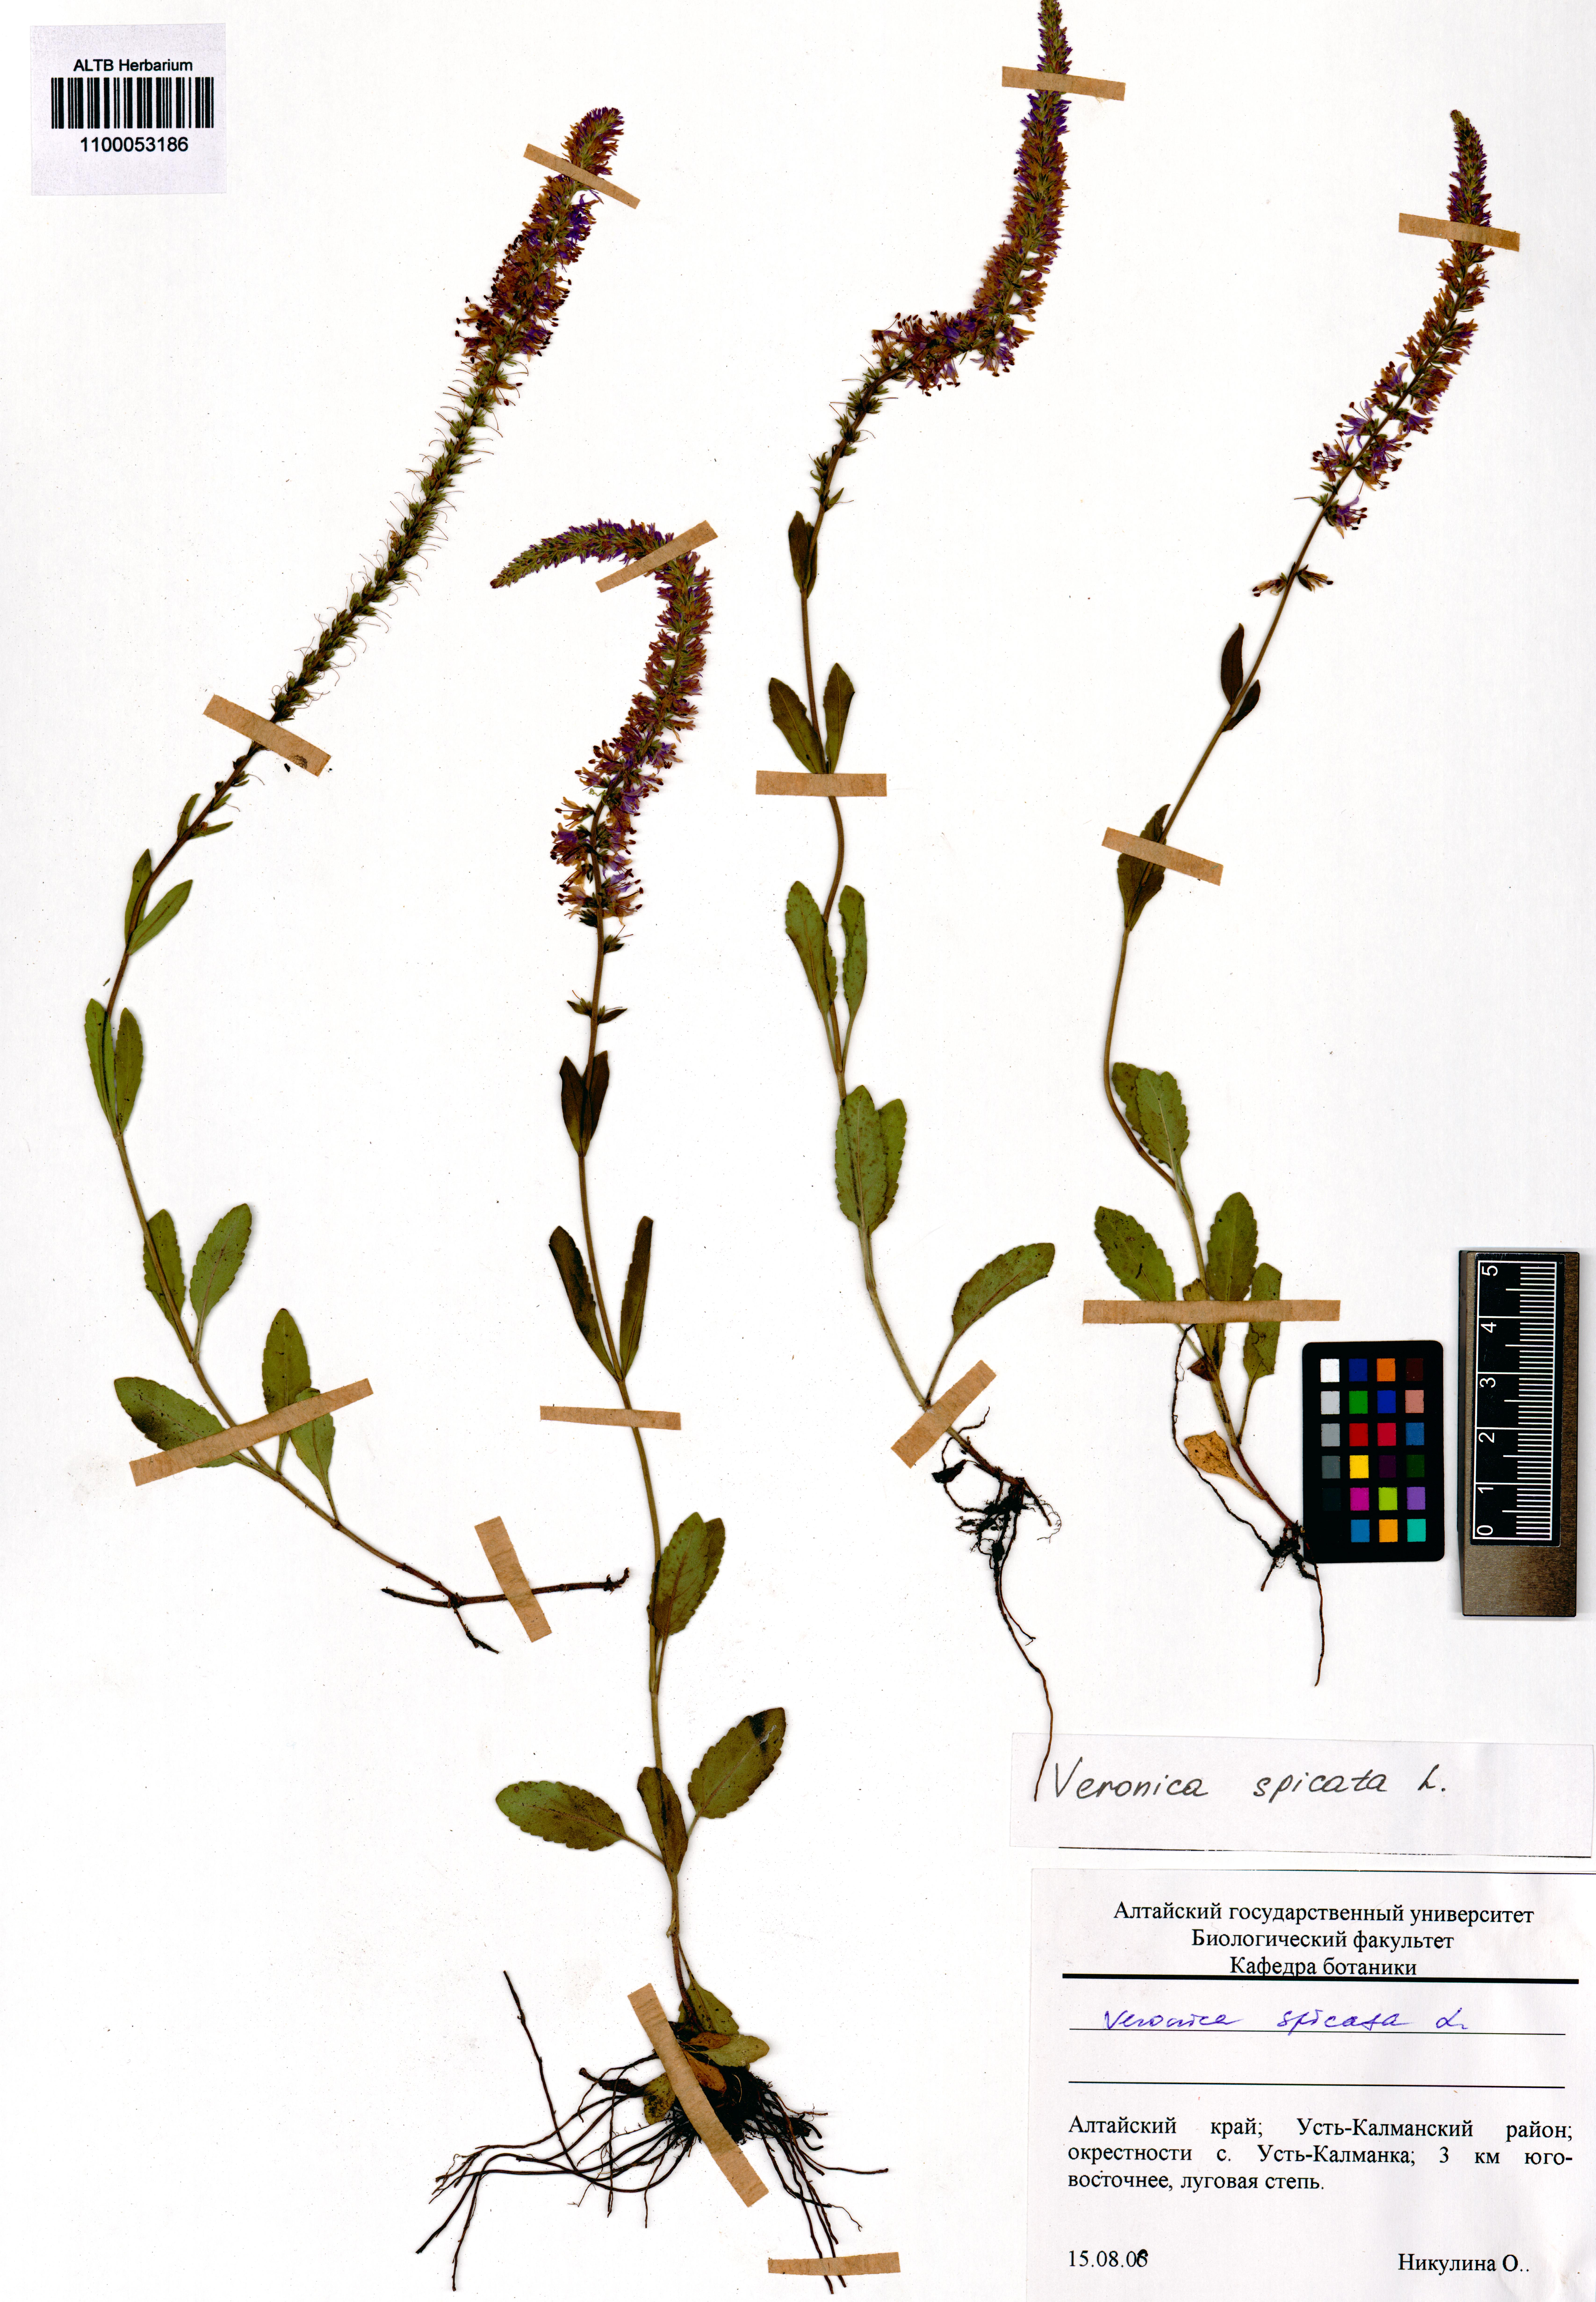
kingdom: Plantae
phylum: Tracheophyta
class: Magnoliopsida
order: Lamiales
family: Plantaginaceae
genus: Veronica
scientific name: Veronica spicata
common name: Spiked speedwell
